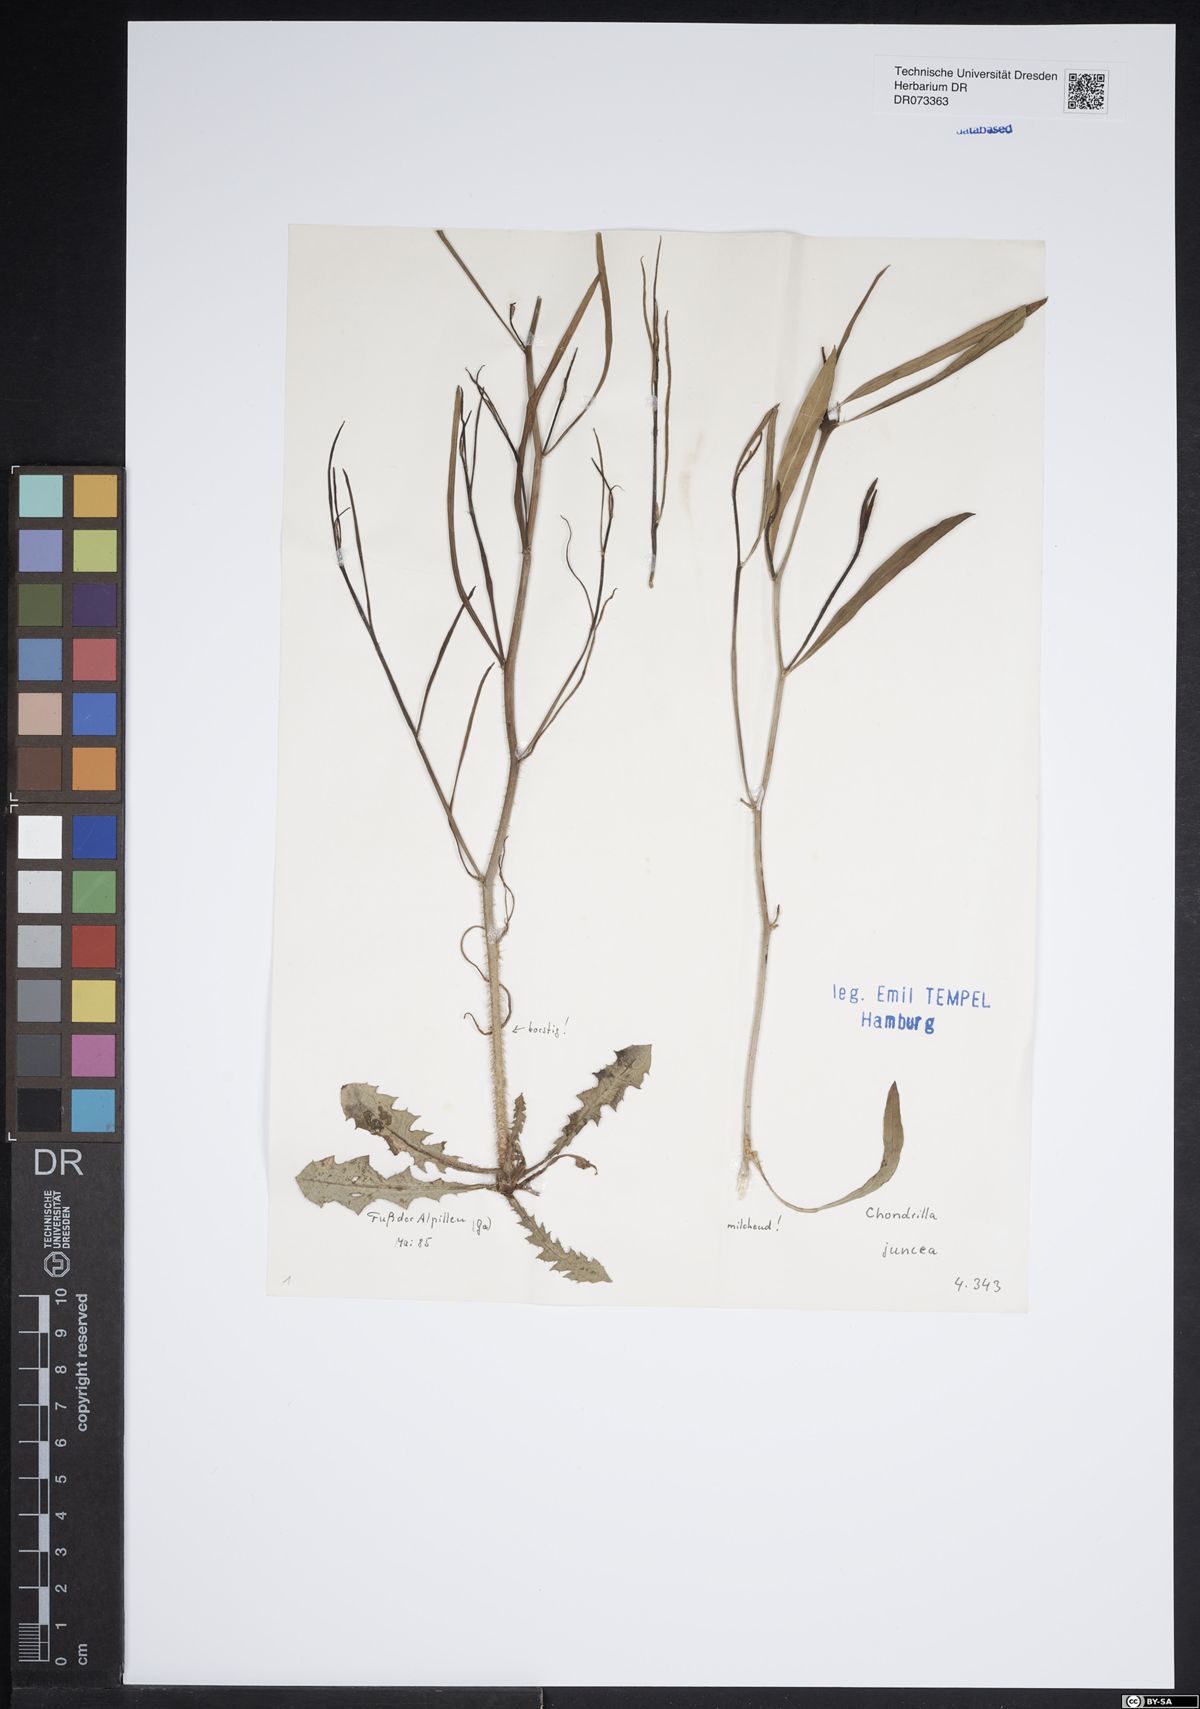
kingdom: Plantae
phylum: Tracheophyta
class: Magnoliopsida
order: Asterales
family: Asteraceae
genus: Chondrilla
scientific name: Chondrilla juncea
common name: Skeleton weed
